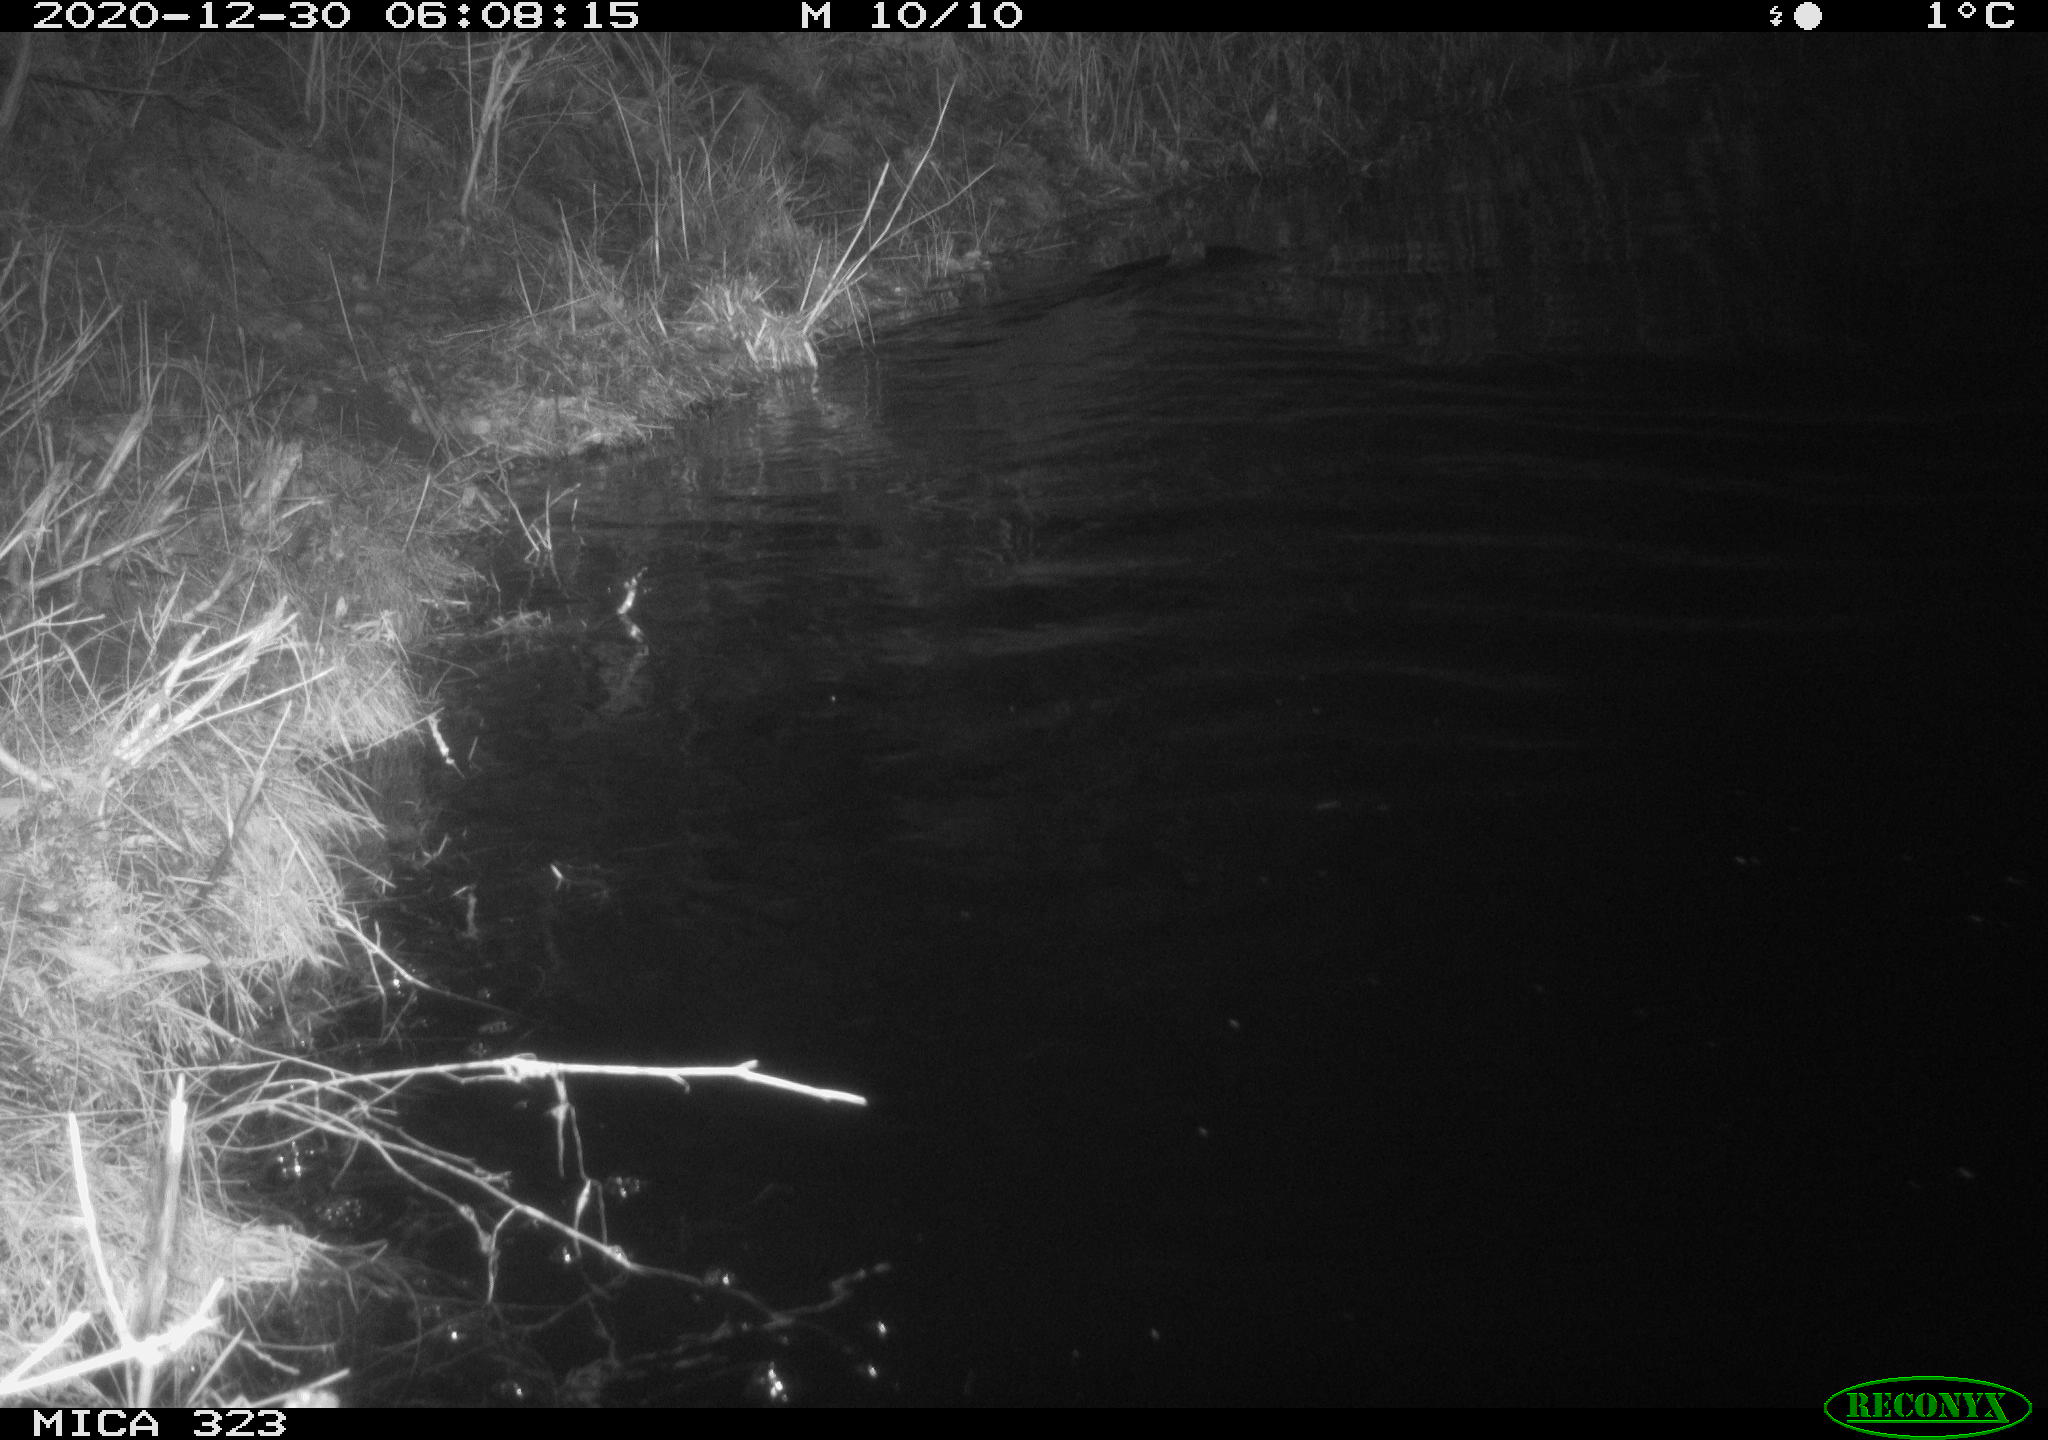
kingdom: Animalia
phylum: Chordata
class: Mammalia
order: Rodentia
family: Myocastoridae
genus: Myocastor
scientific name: Myocastor coypus
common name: Coypu
